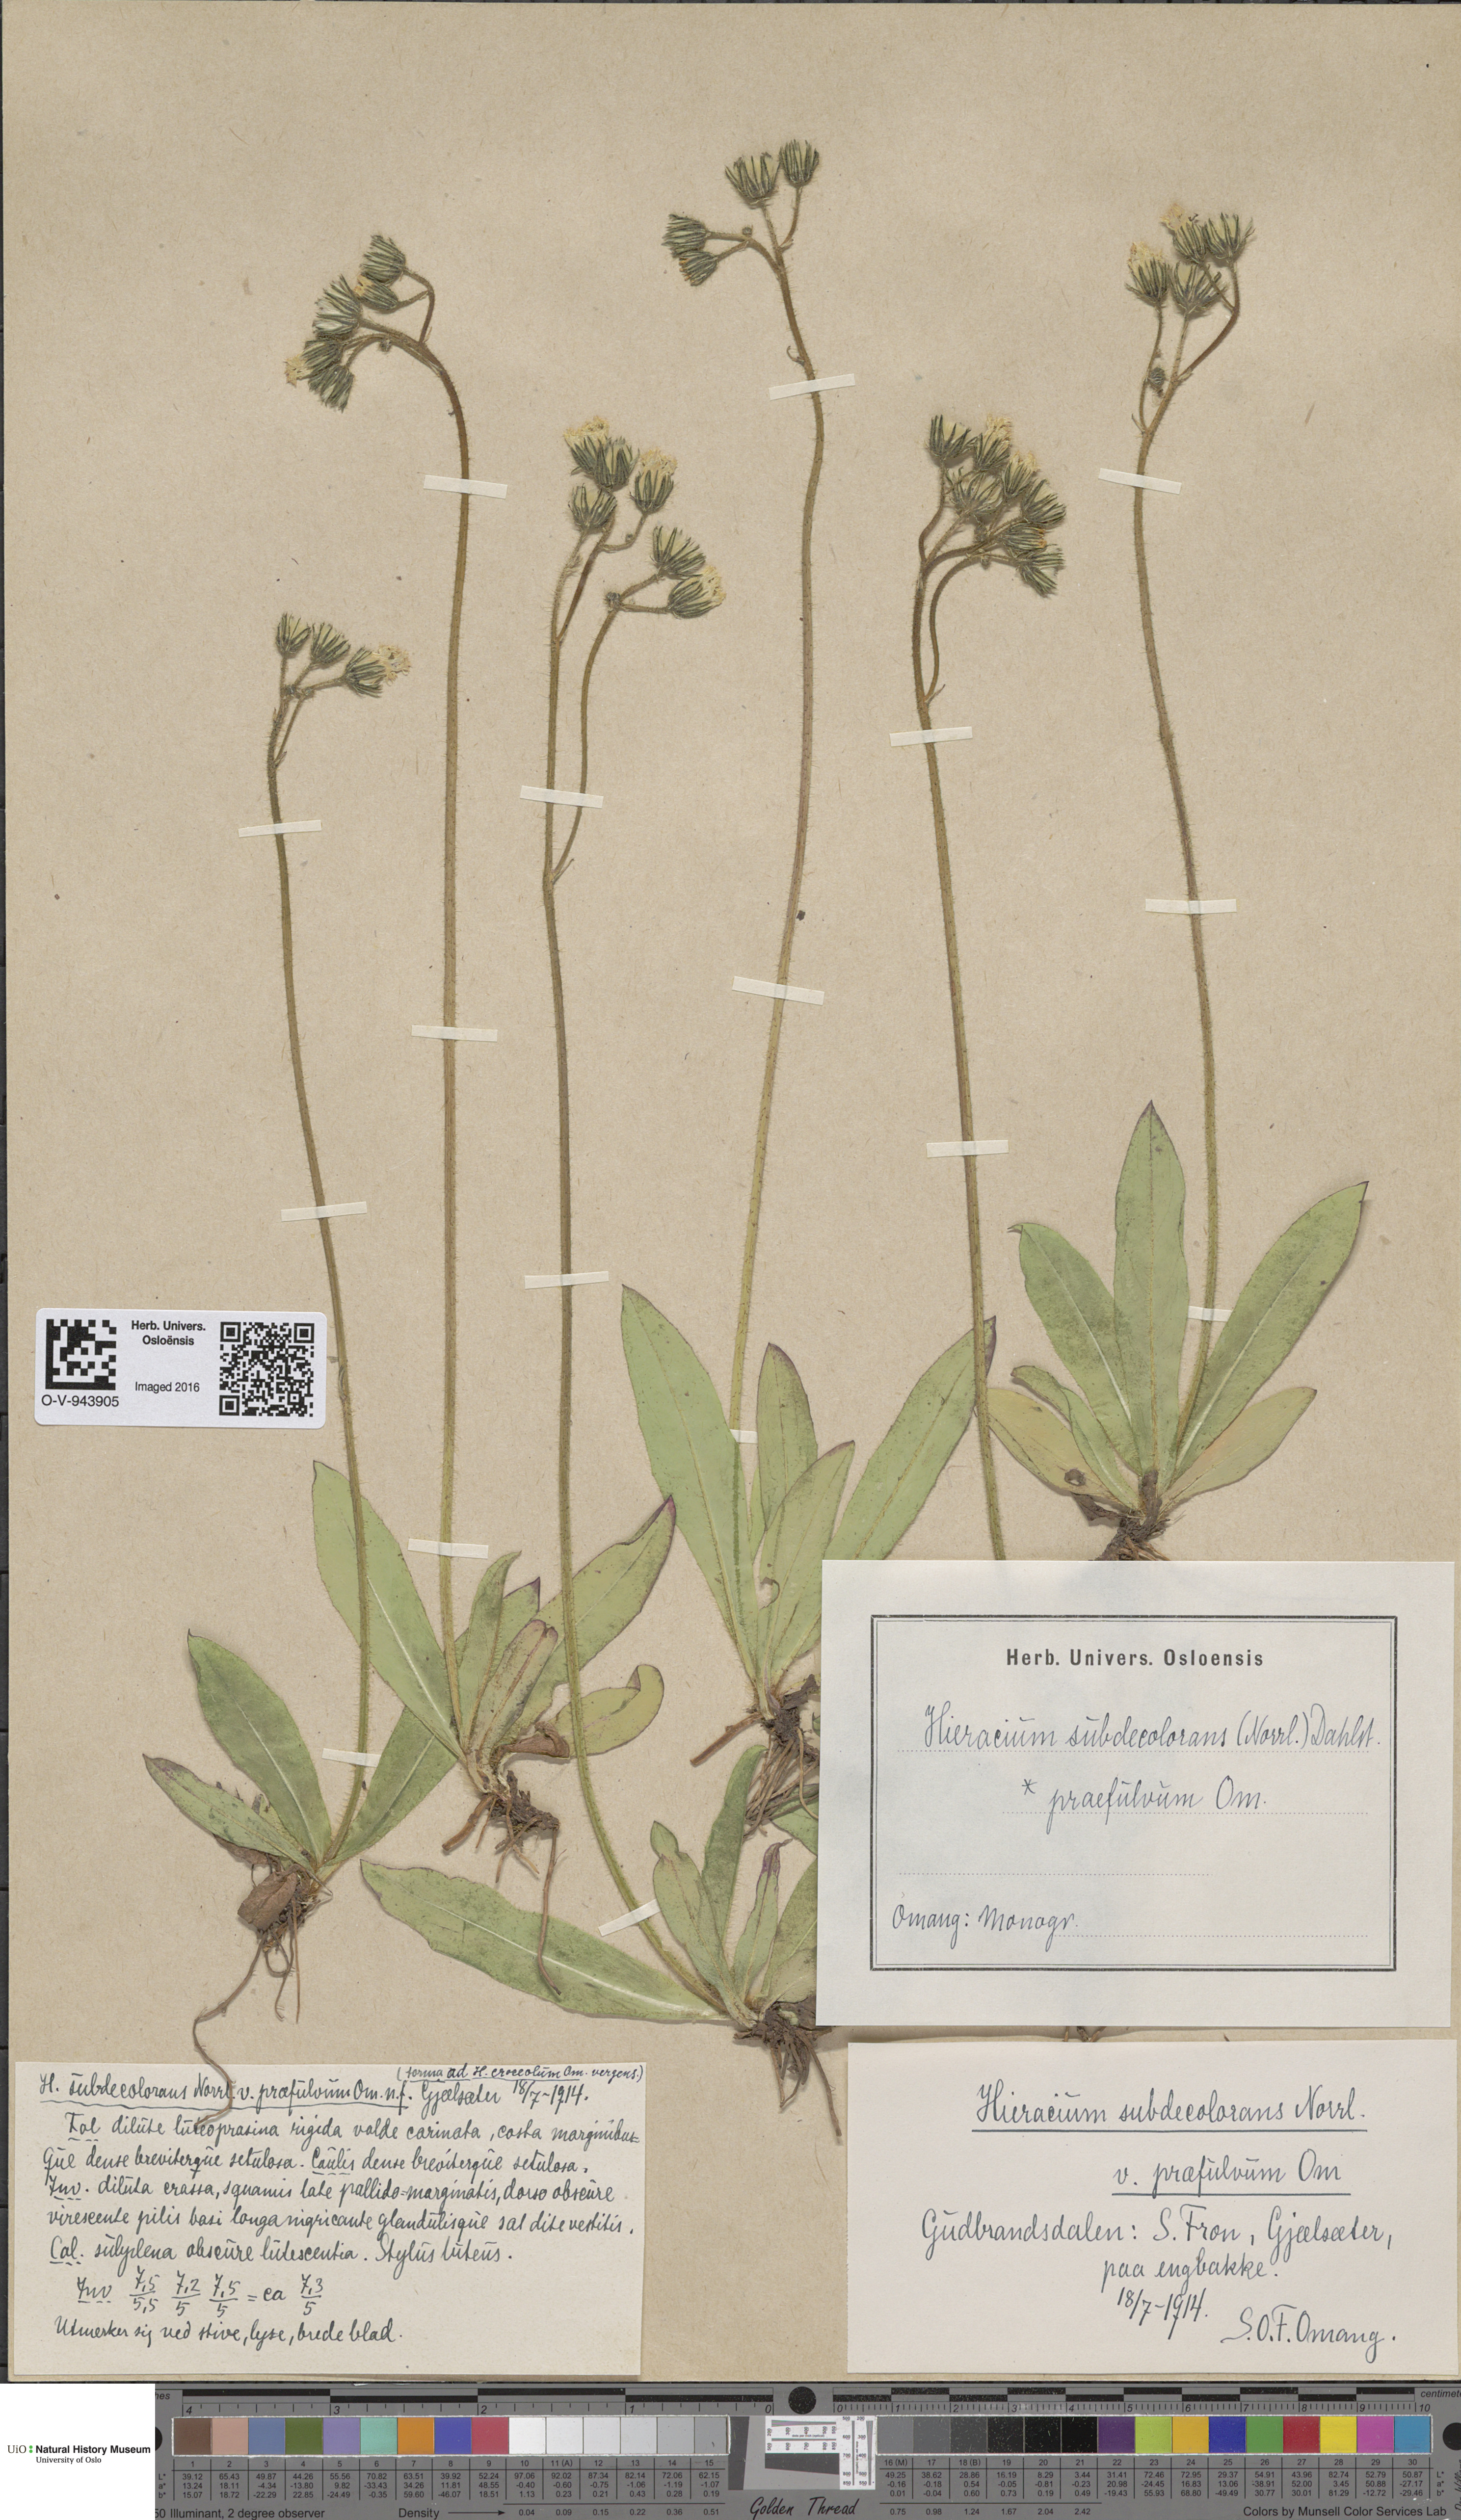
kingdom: Plantae
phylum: Tracheophyta
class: Magnoliopsida
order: Asterales
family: Asteraceae
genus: Pilosella
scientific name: Pilosella subdecolorans
